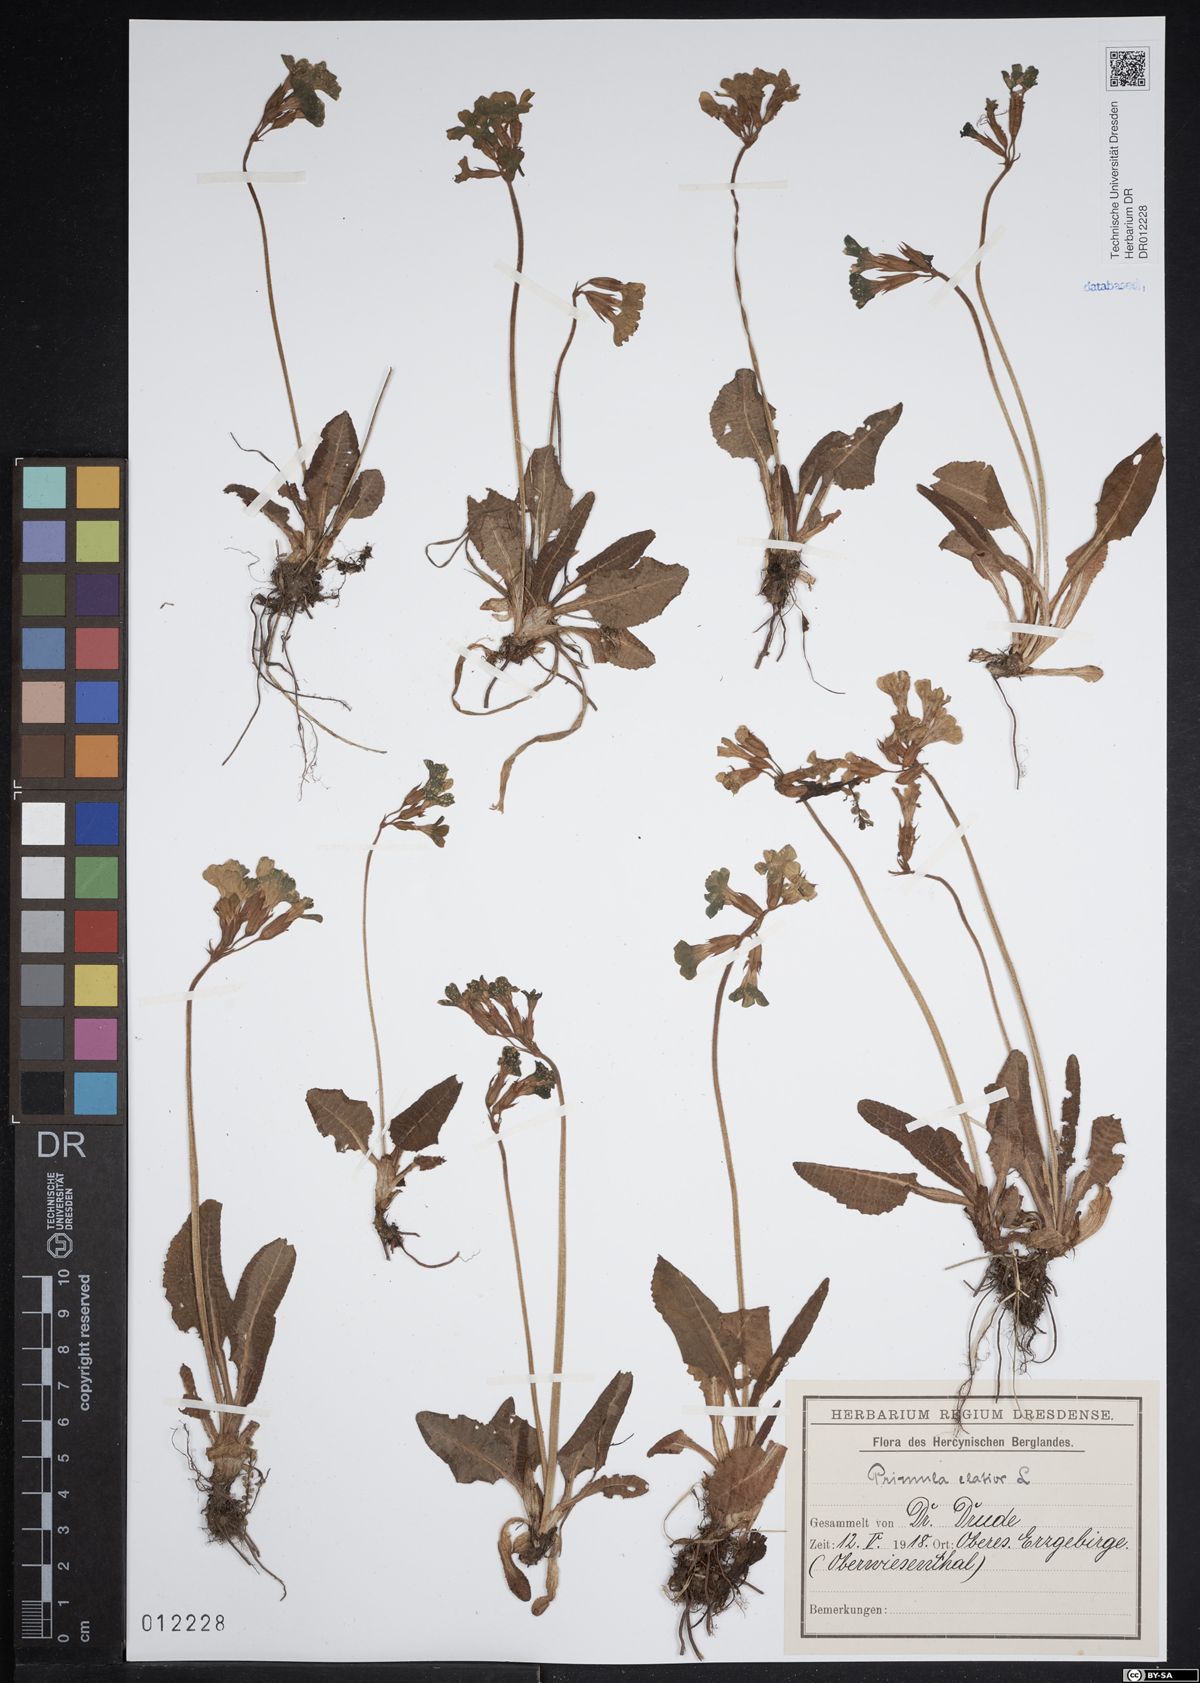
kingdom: Plantae
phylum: Tracheophyta
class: Magnoliopsida
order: Ericales
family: Primulaceae
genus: Primula
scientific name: Primula elatior
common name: Oxlip
